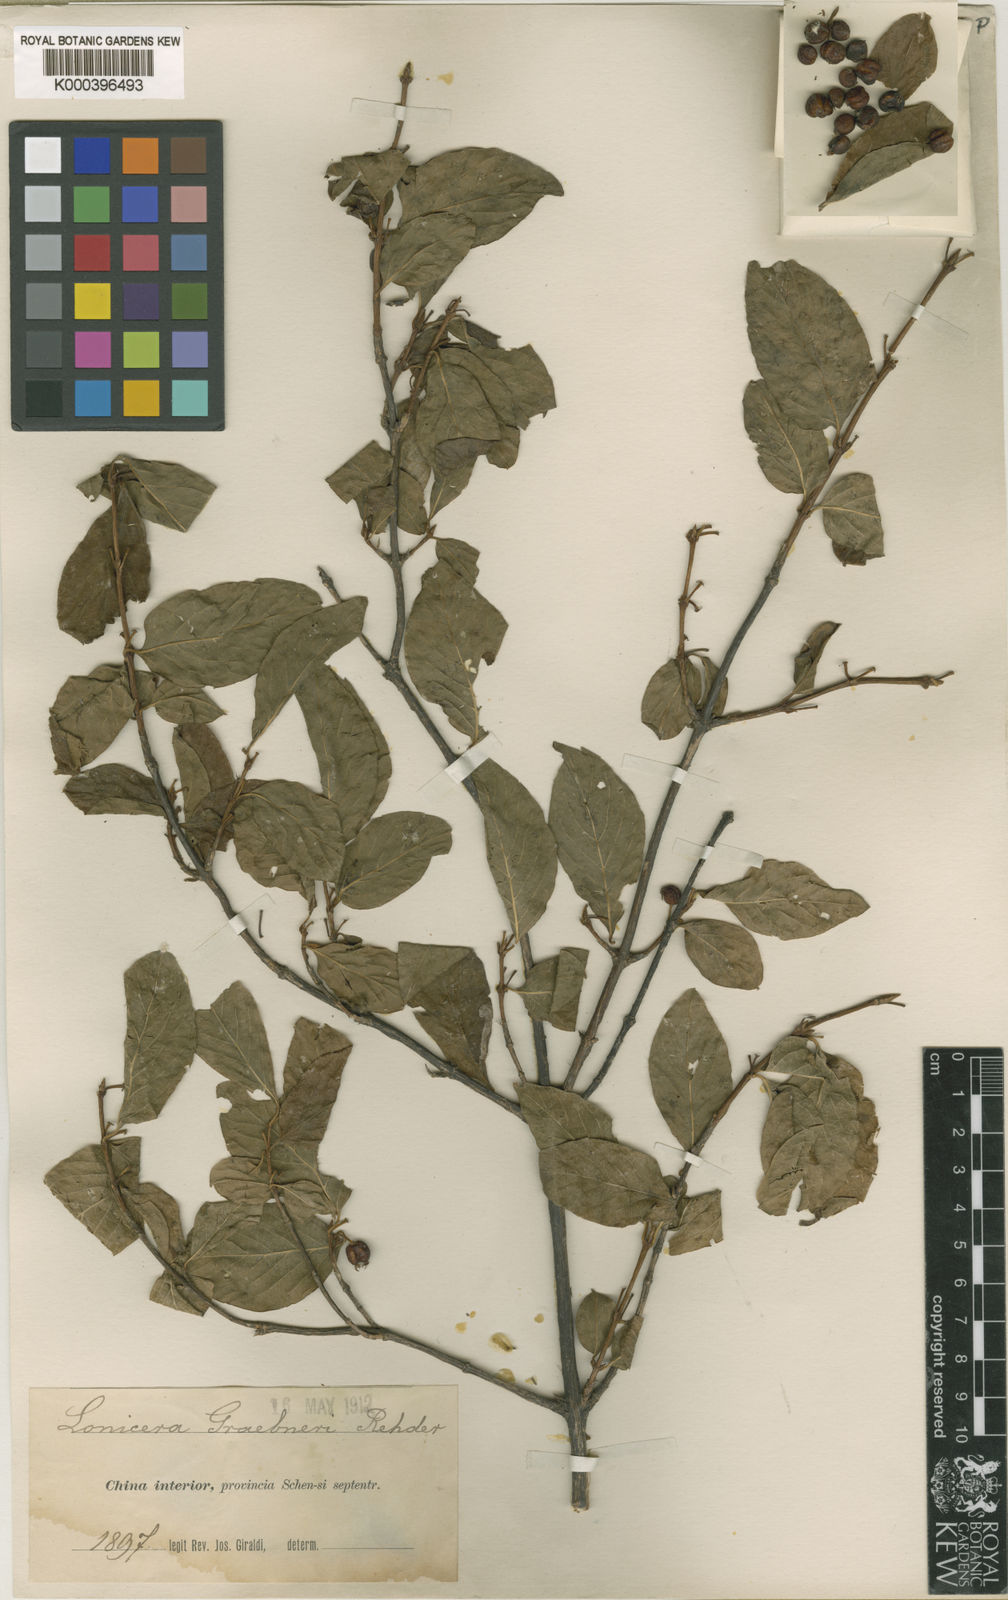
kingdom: Plantae
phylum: Tracheophyta
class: Magnoliopsida
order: Dipsacales
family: Caprifoliaceae
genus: Lonicera
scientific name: Lonicera modesta
